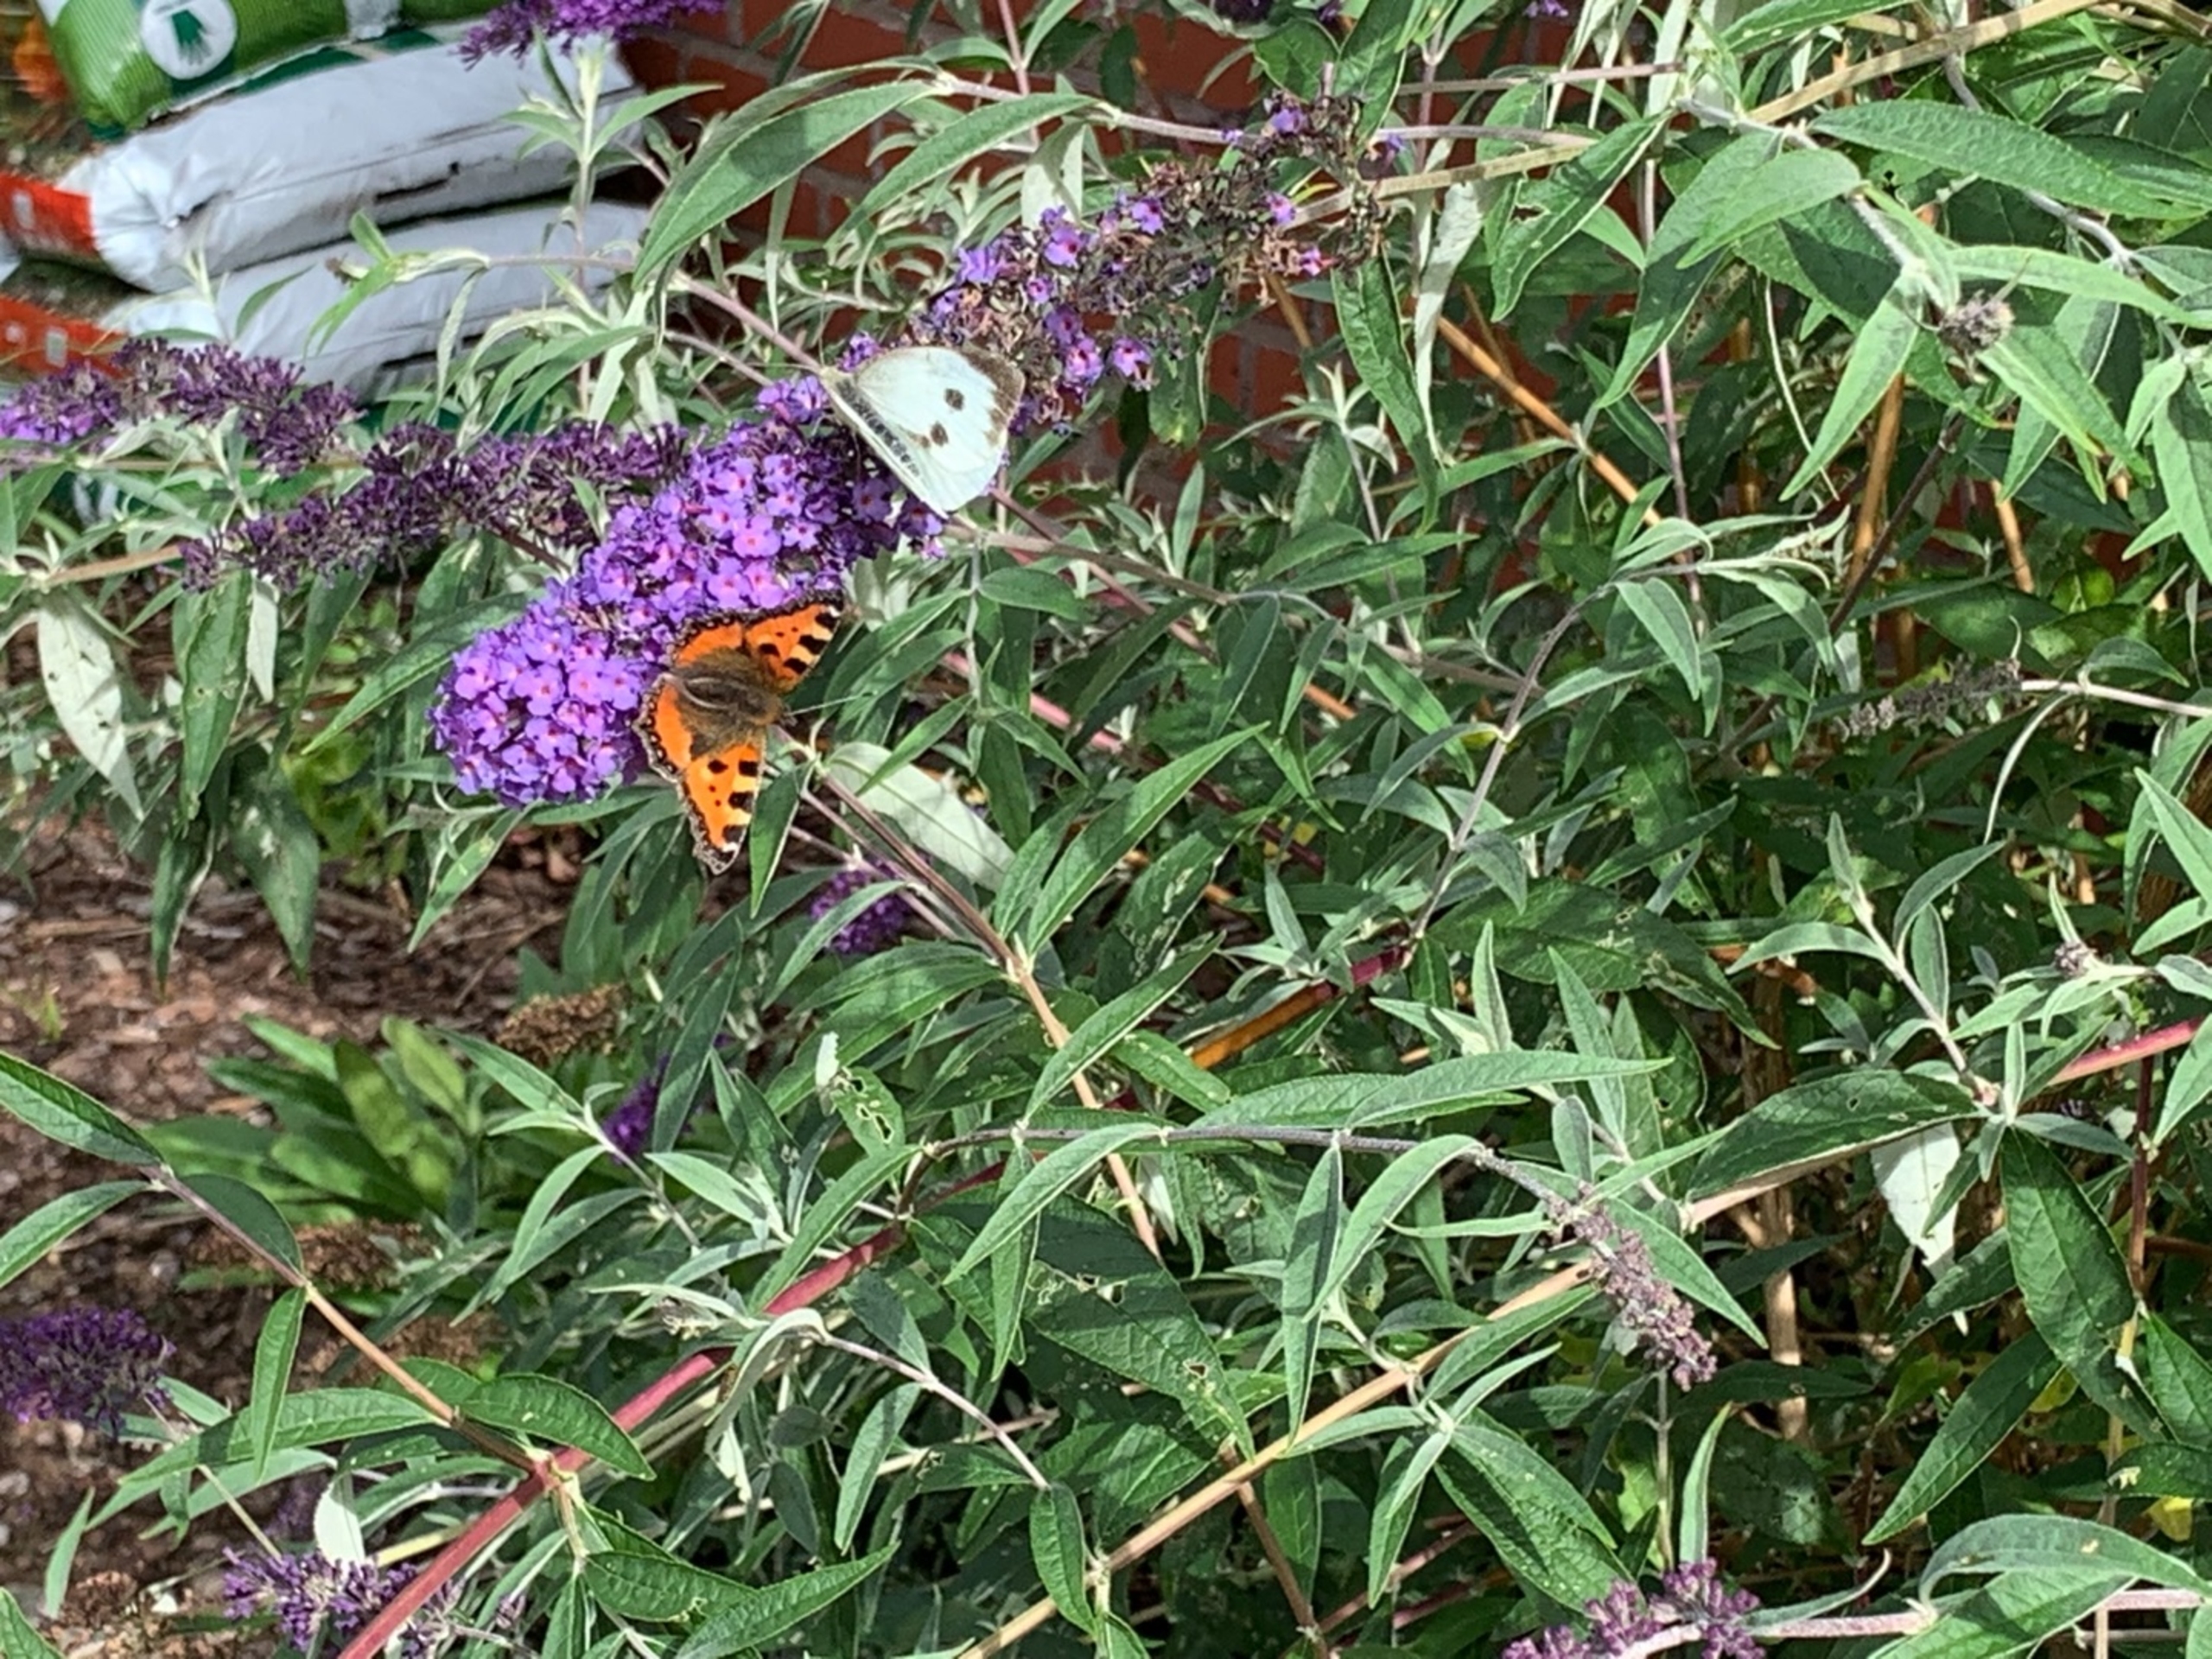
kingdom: Animalia
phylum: Arthropoda
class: Insecta
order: Lepidoptera
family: Nymphalidae
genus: Aglais
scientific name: Aglais urticae
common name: Nældens takvinge
